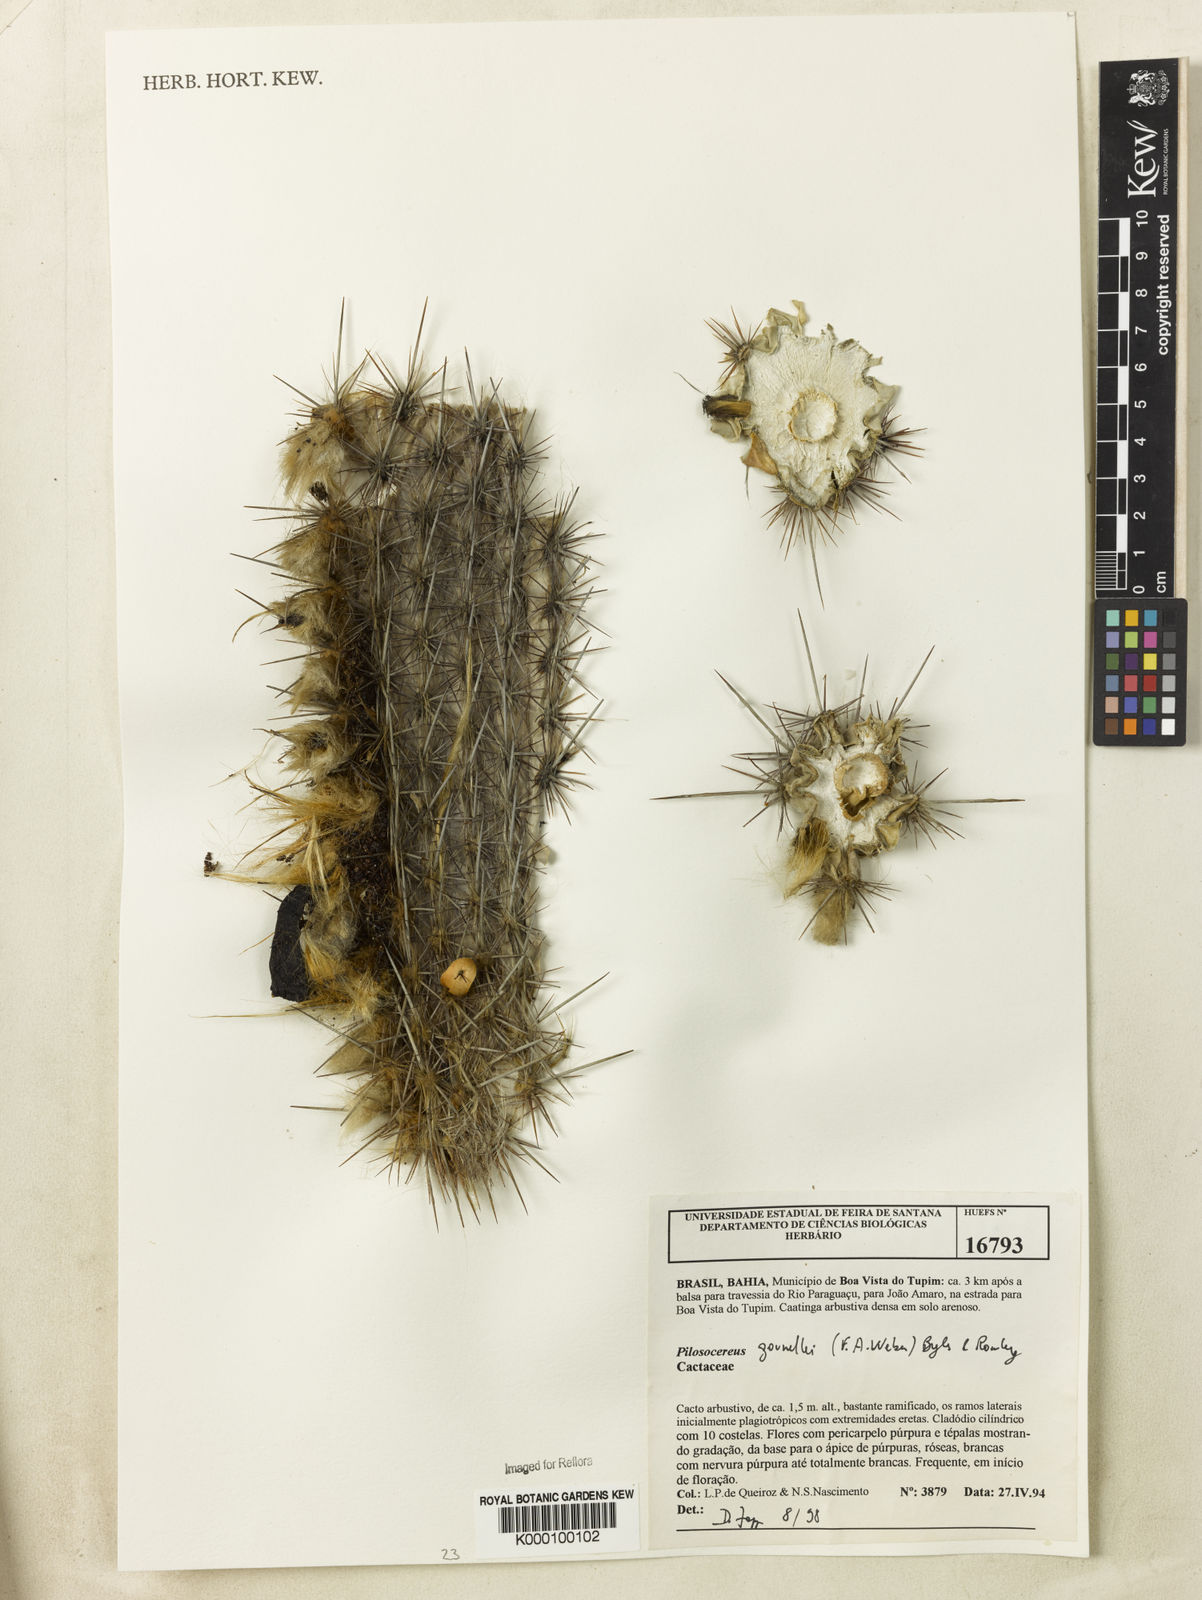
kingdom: Plantae
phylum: Tracheophyta
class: Magnoliopsida
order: Caryophyllales
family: Cactaceae
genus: Xiquexique
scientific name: Xiquexique gounellei
